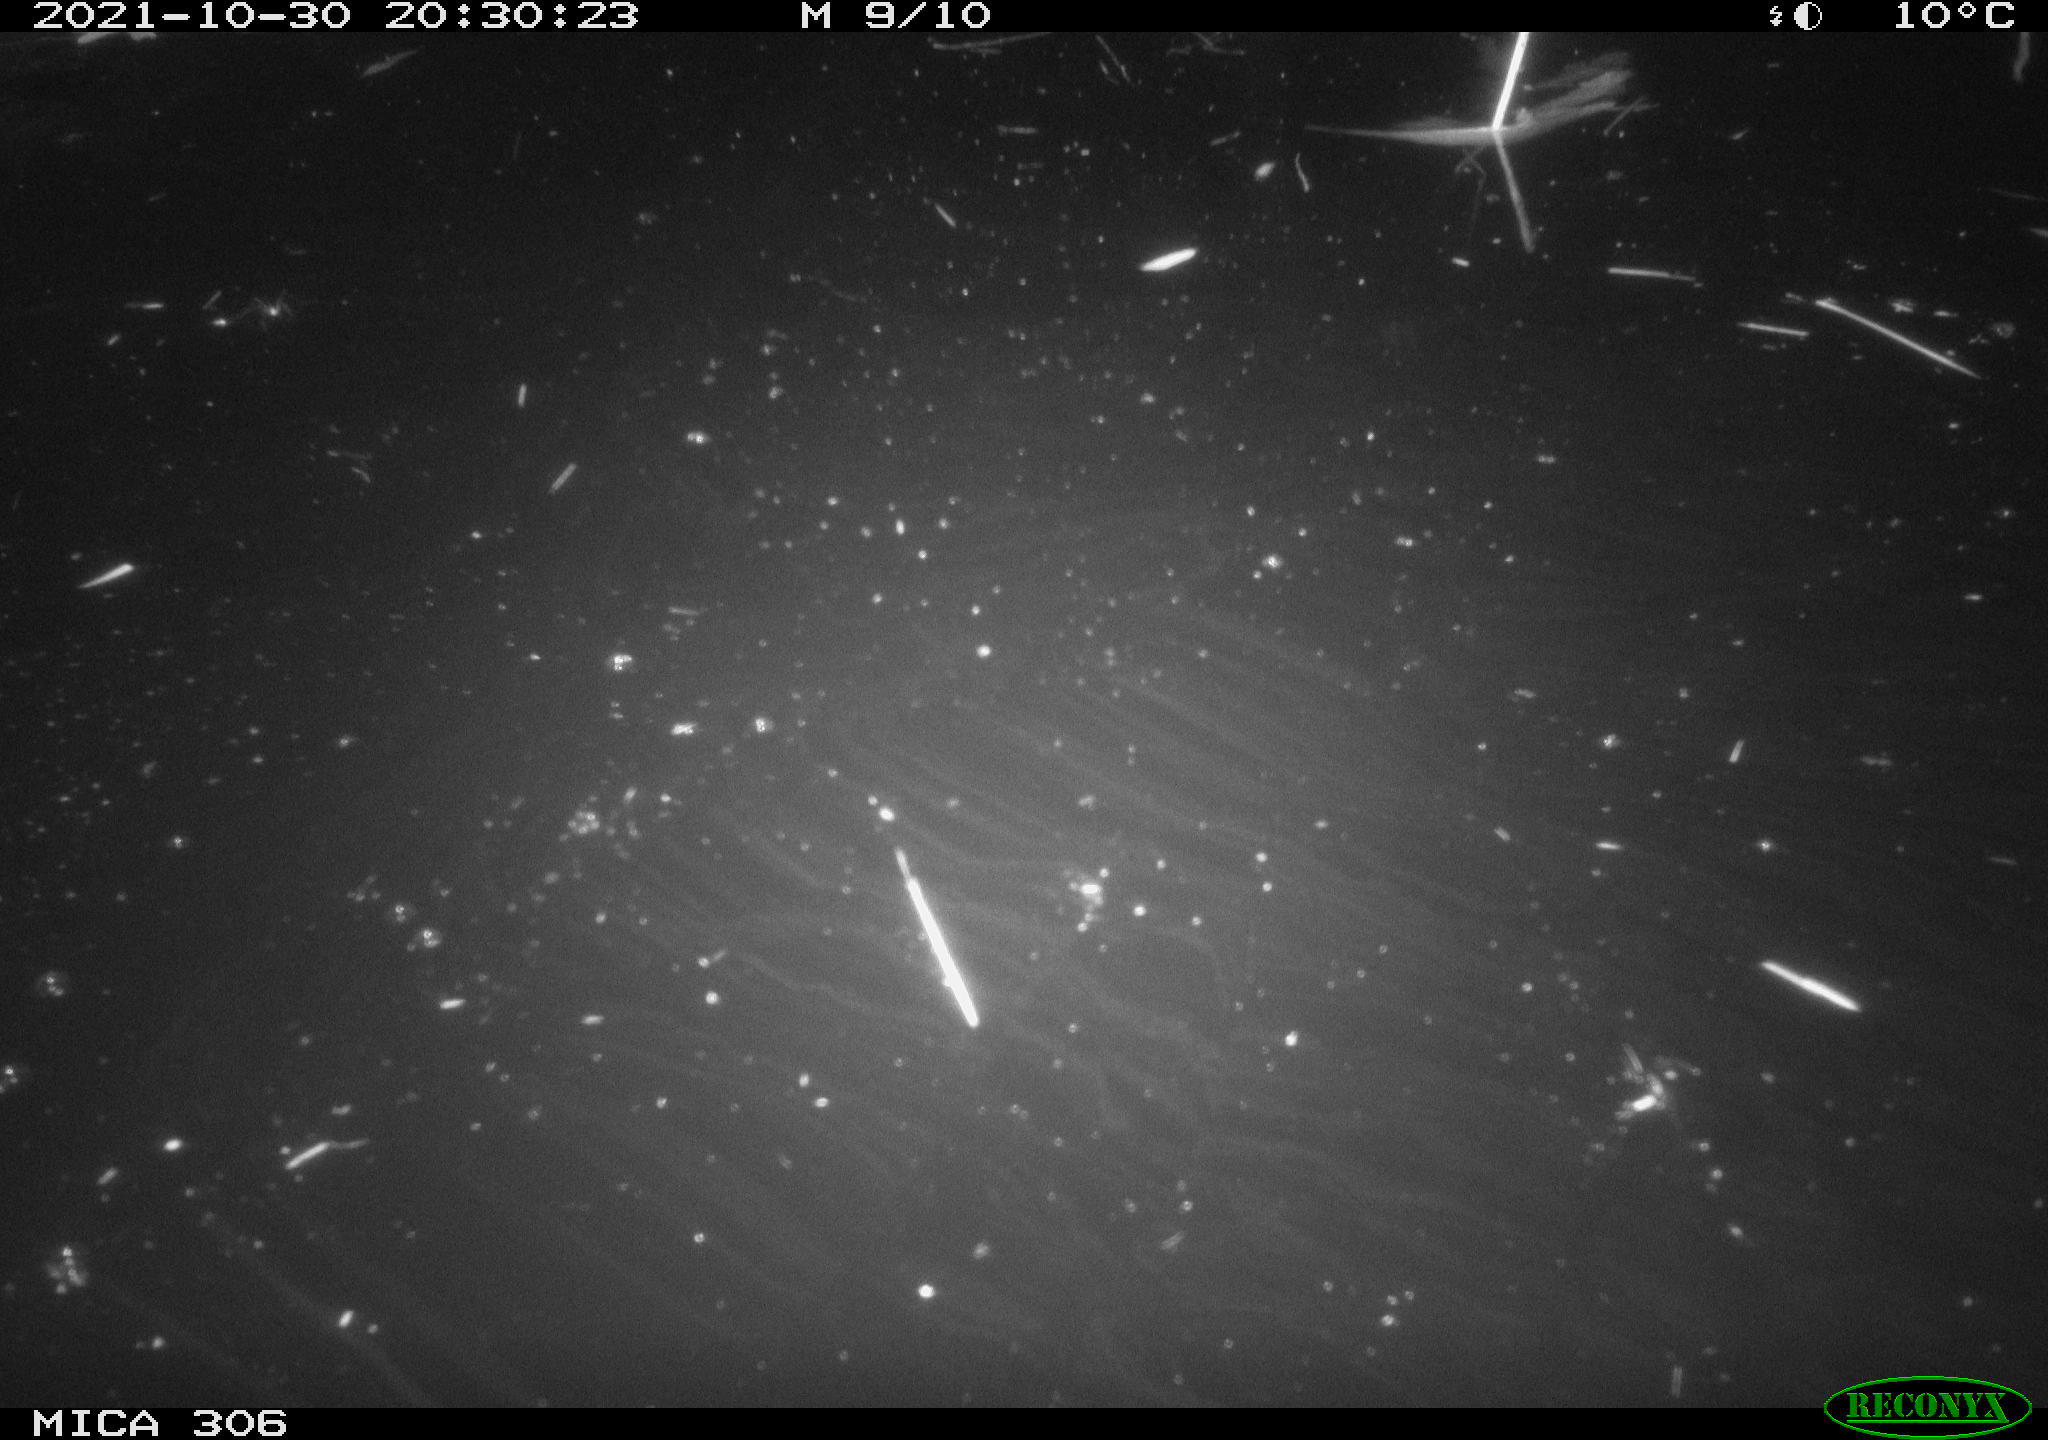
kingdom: Animalia
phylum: Chordata
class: Mammalia
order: Rodentia
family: Cricetidae
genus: Ondatra
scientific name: Ondatra zibethicus
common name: Muskrat
